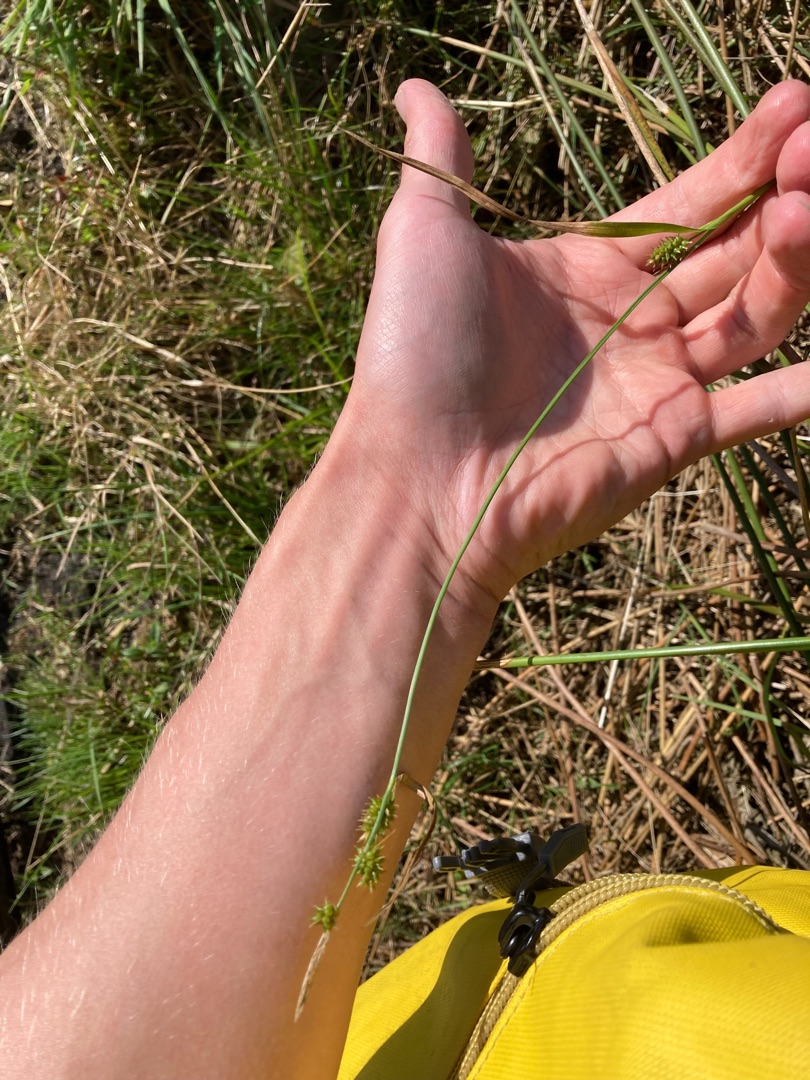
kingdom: Plantae
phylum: Tracheophyta
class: Liliopsida
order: Poales
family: Cyperaceae
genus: Carex
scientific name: Carex demissa
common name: Grøn star
